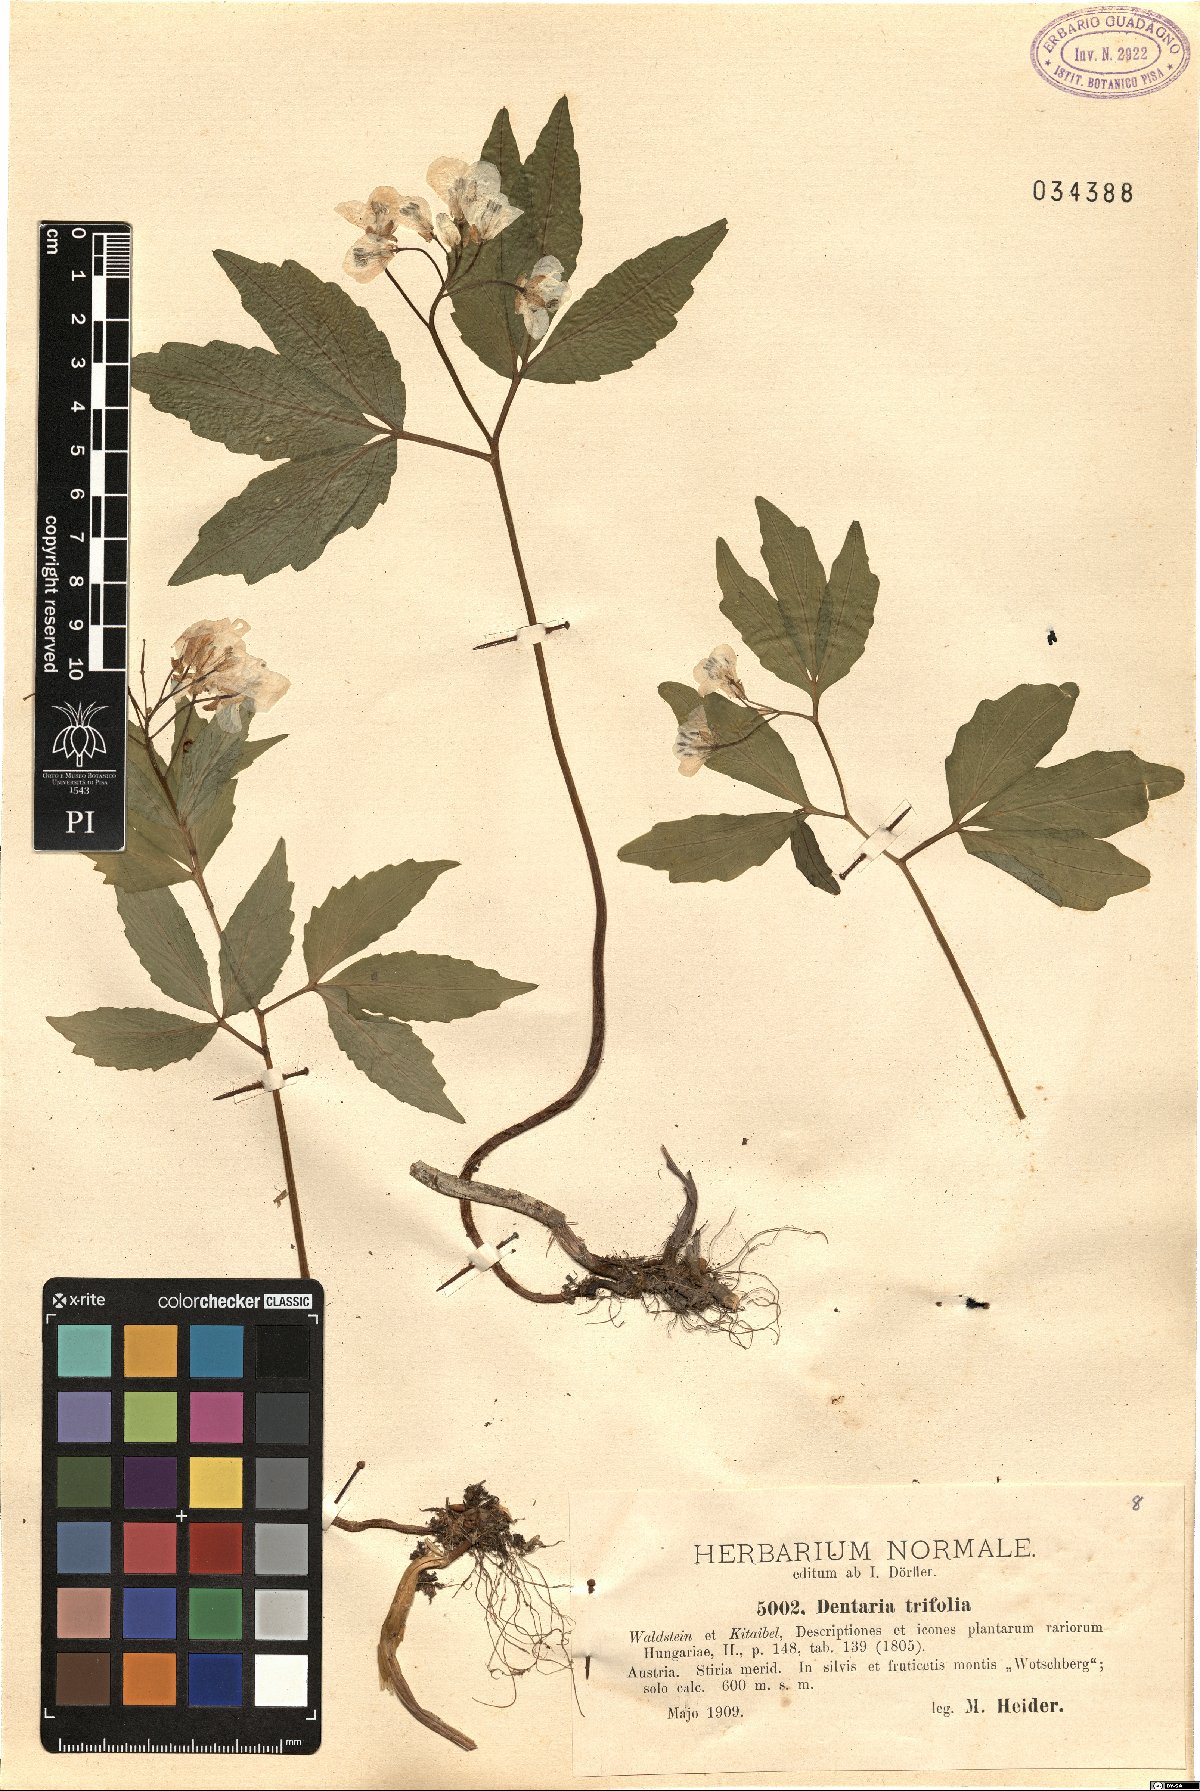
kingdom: Plantae
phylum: Tracheophyta
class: Magnoliopsida
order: Brassicales
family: Brassicaceae
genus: Cardamine
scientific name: Cardamine waldsteinii
